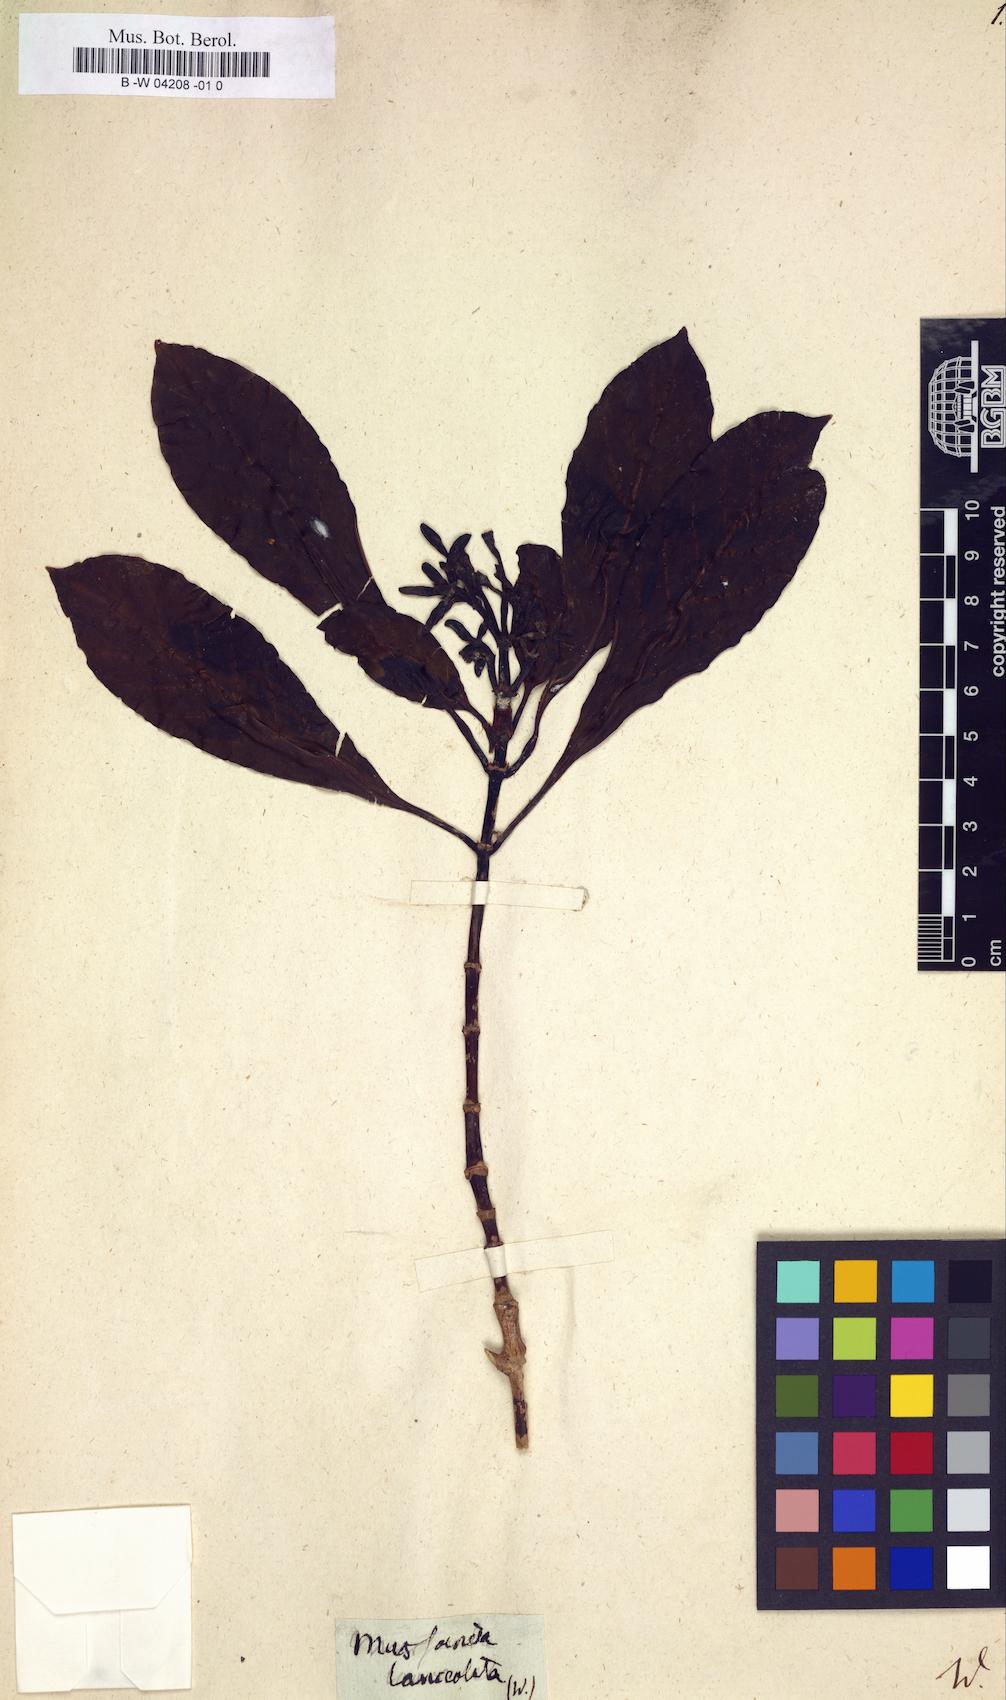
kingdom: Plantae
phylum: Tracheophyta
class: Magnoliopsida
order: Gentianales
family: Rubiaceae
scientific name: Rubiaceae
